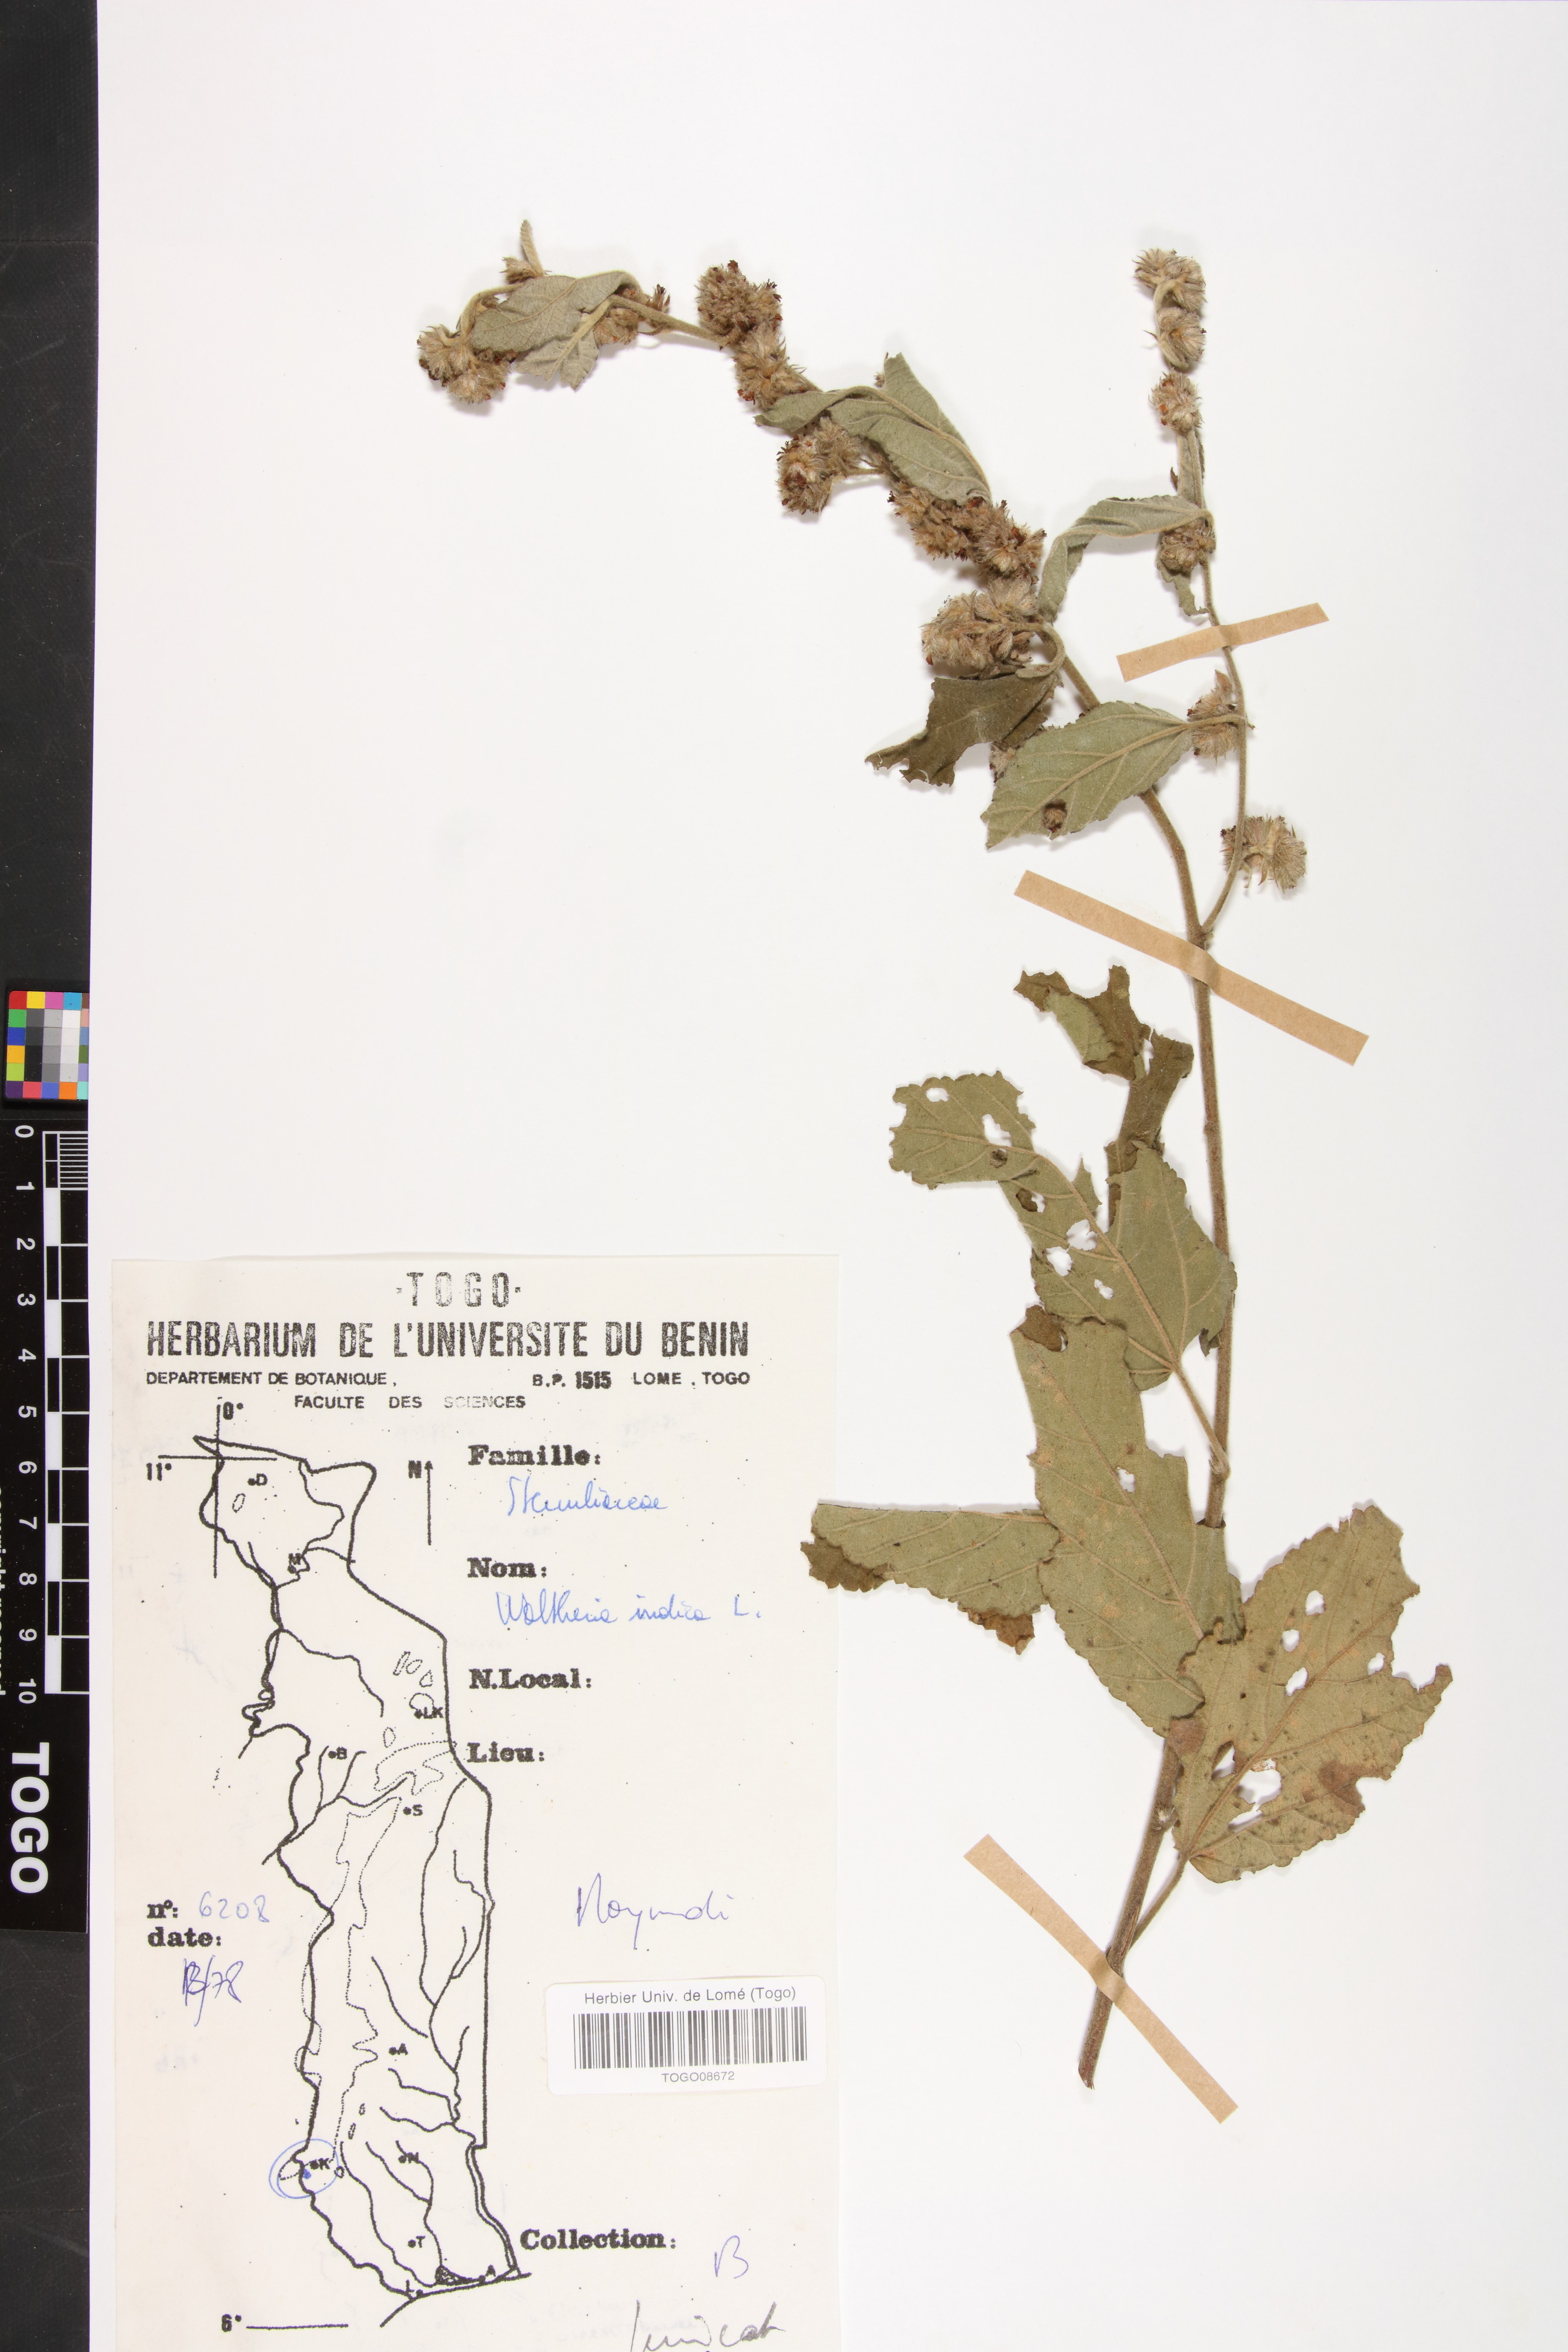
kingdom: Plantae
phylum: Tracheophyta
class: Magnoliopsida
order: Malvales
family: Malvaceae
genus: Waltheria
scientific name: Waltheria indica
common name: Leather-coat
